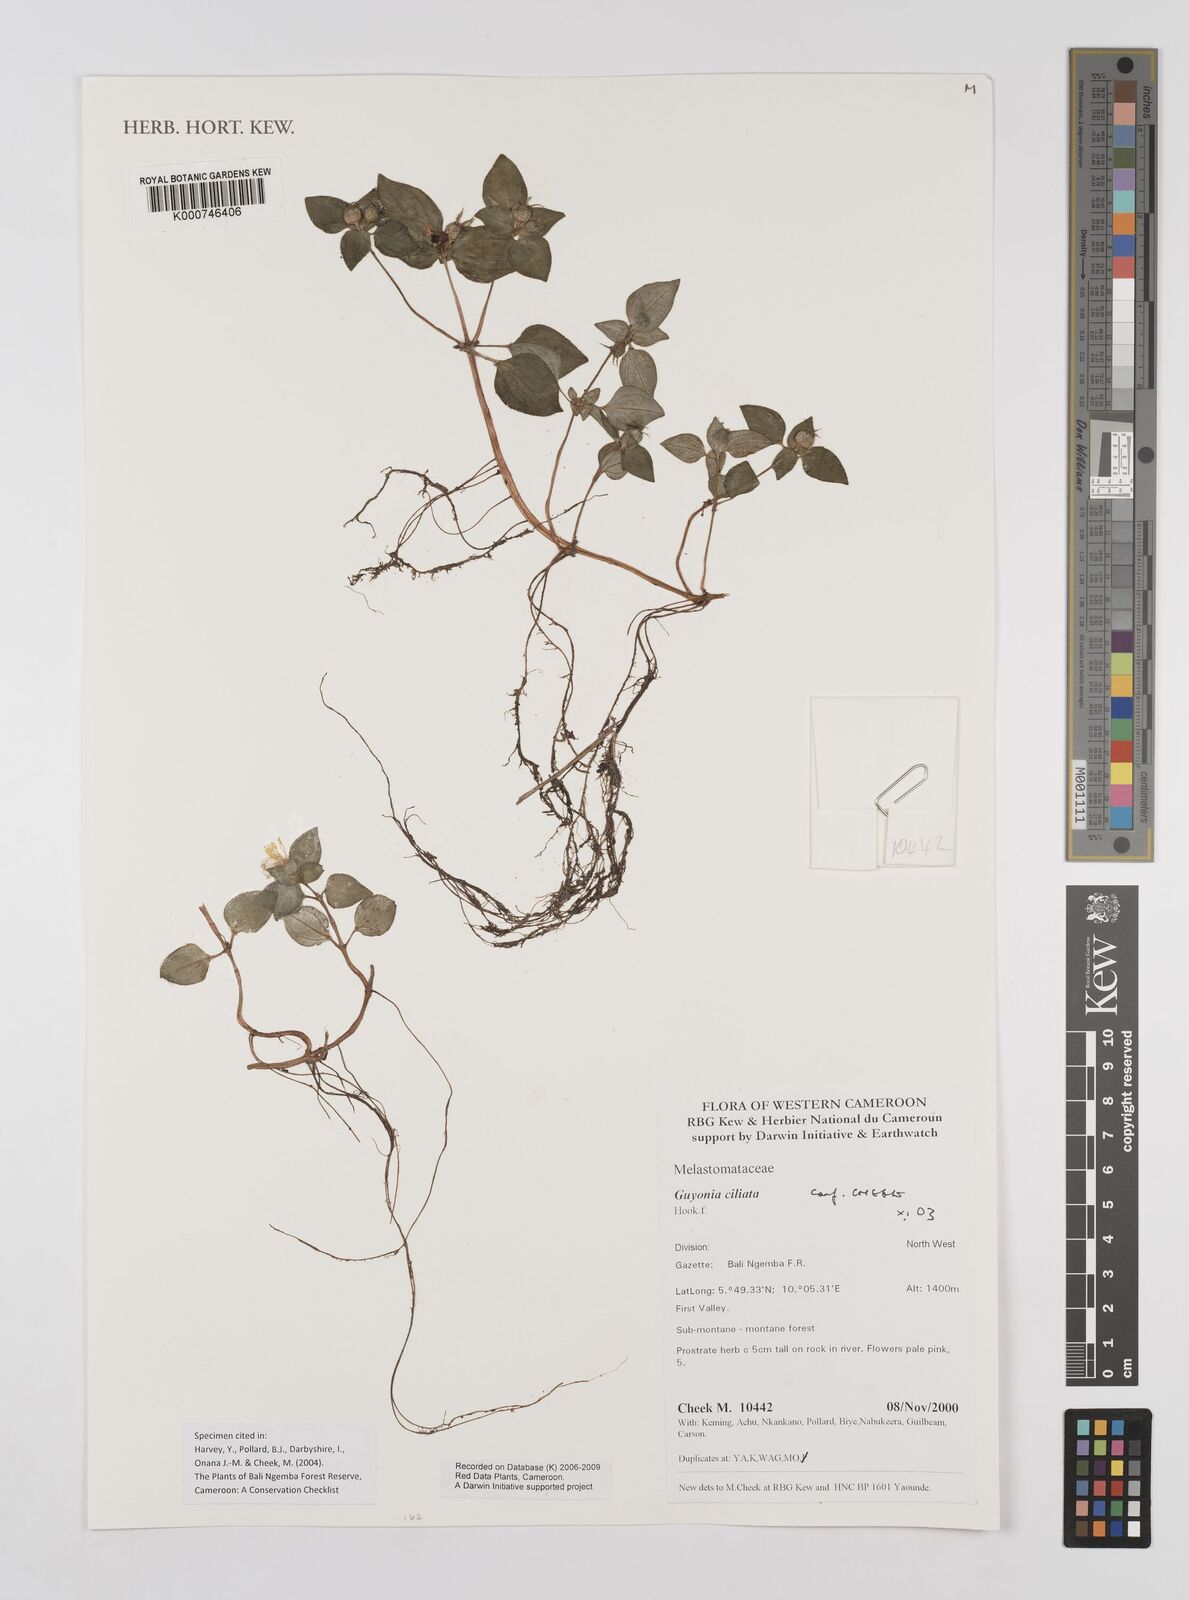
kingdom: Plantae
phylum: Tracheophyta
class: Magnoliopsida
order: Myrtales
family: Melastomataceae
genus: Guyonia
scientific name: Guyonia ciliata
